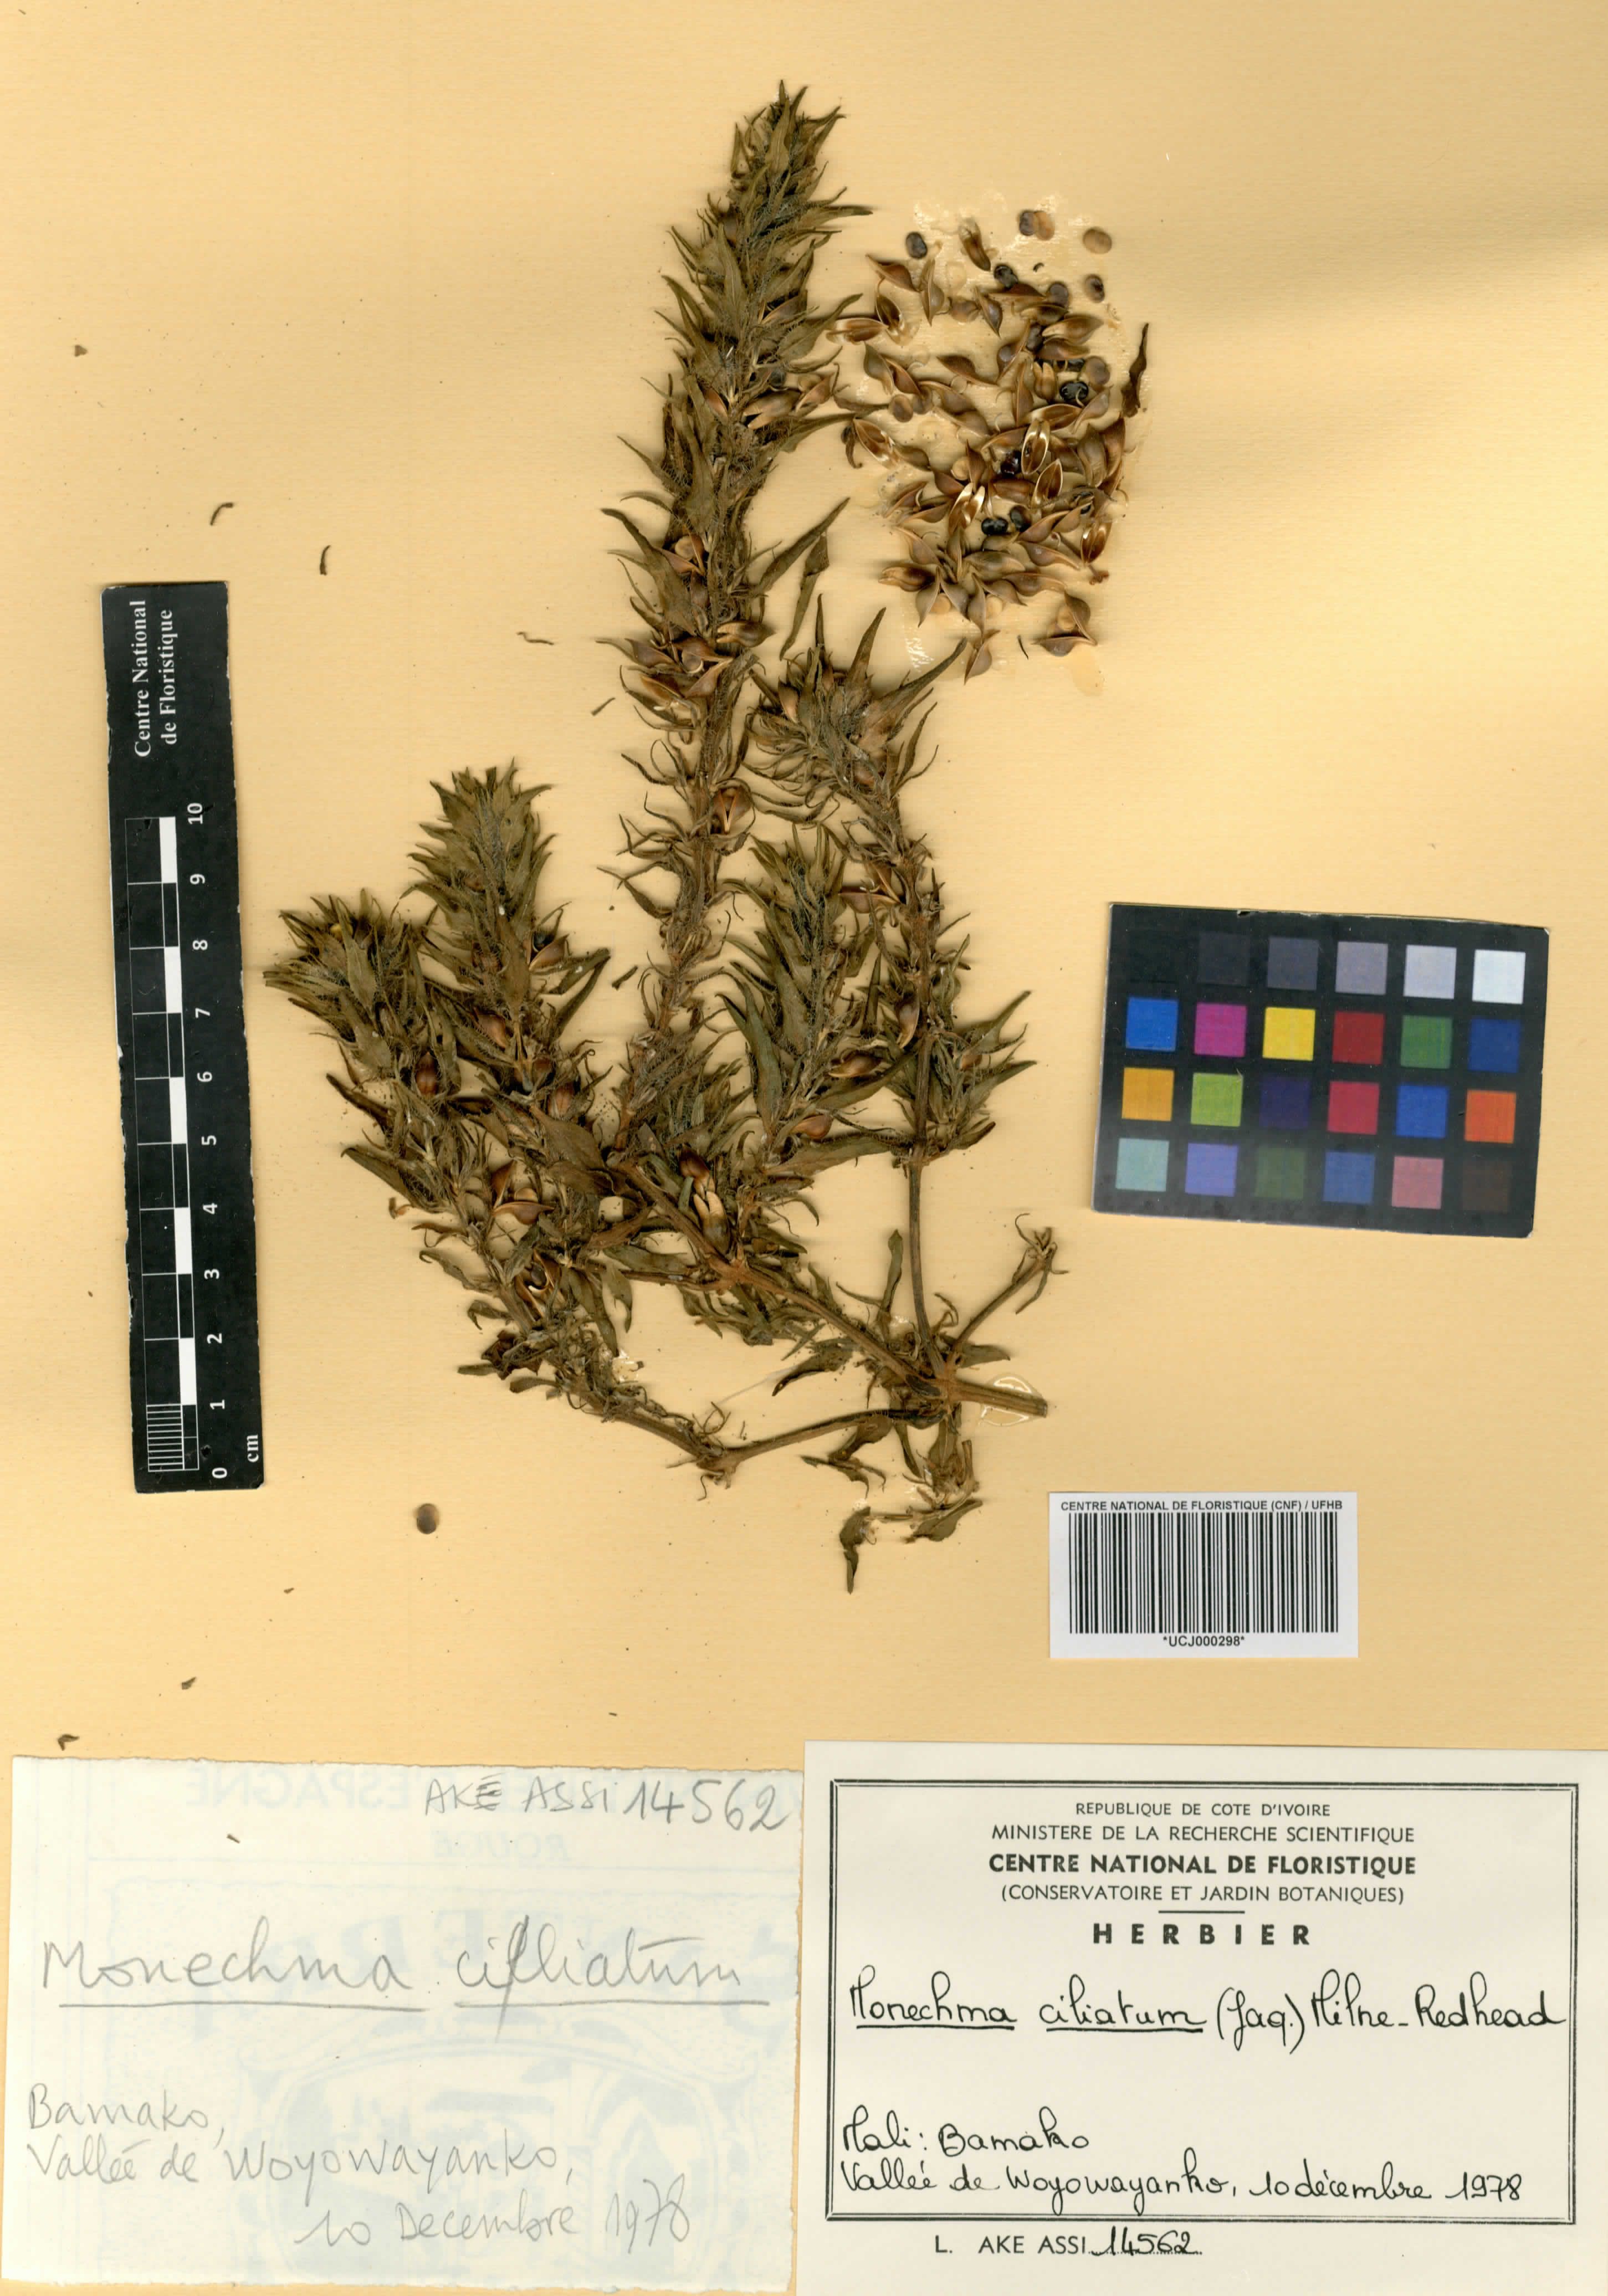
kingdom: Plantae
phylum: Tracheophyta
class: Magnoliopsida
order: Lamiales
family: Acanthaceae
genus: Monechma
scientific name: Monechma
